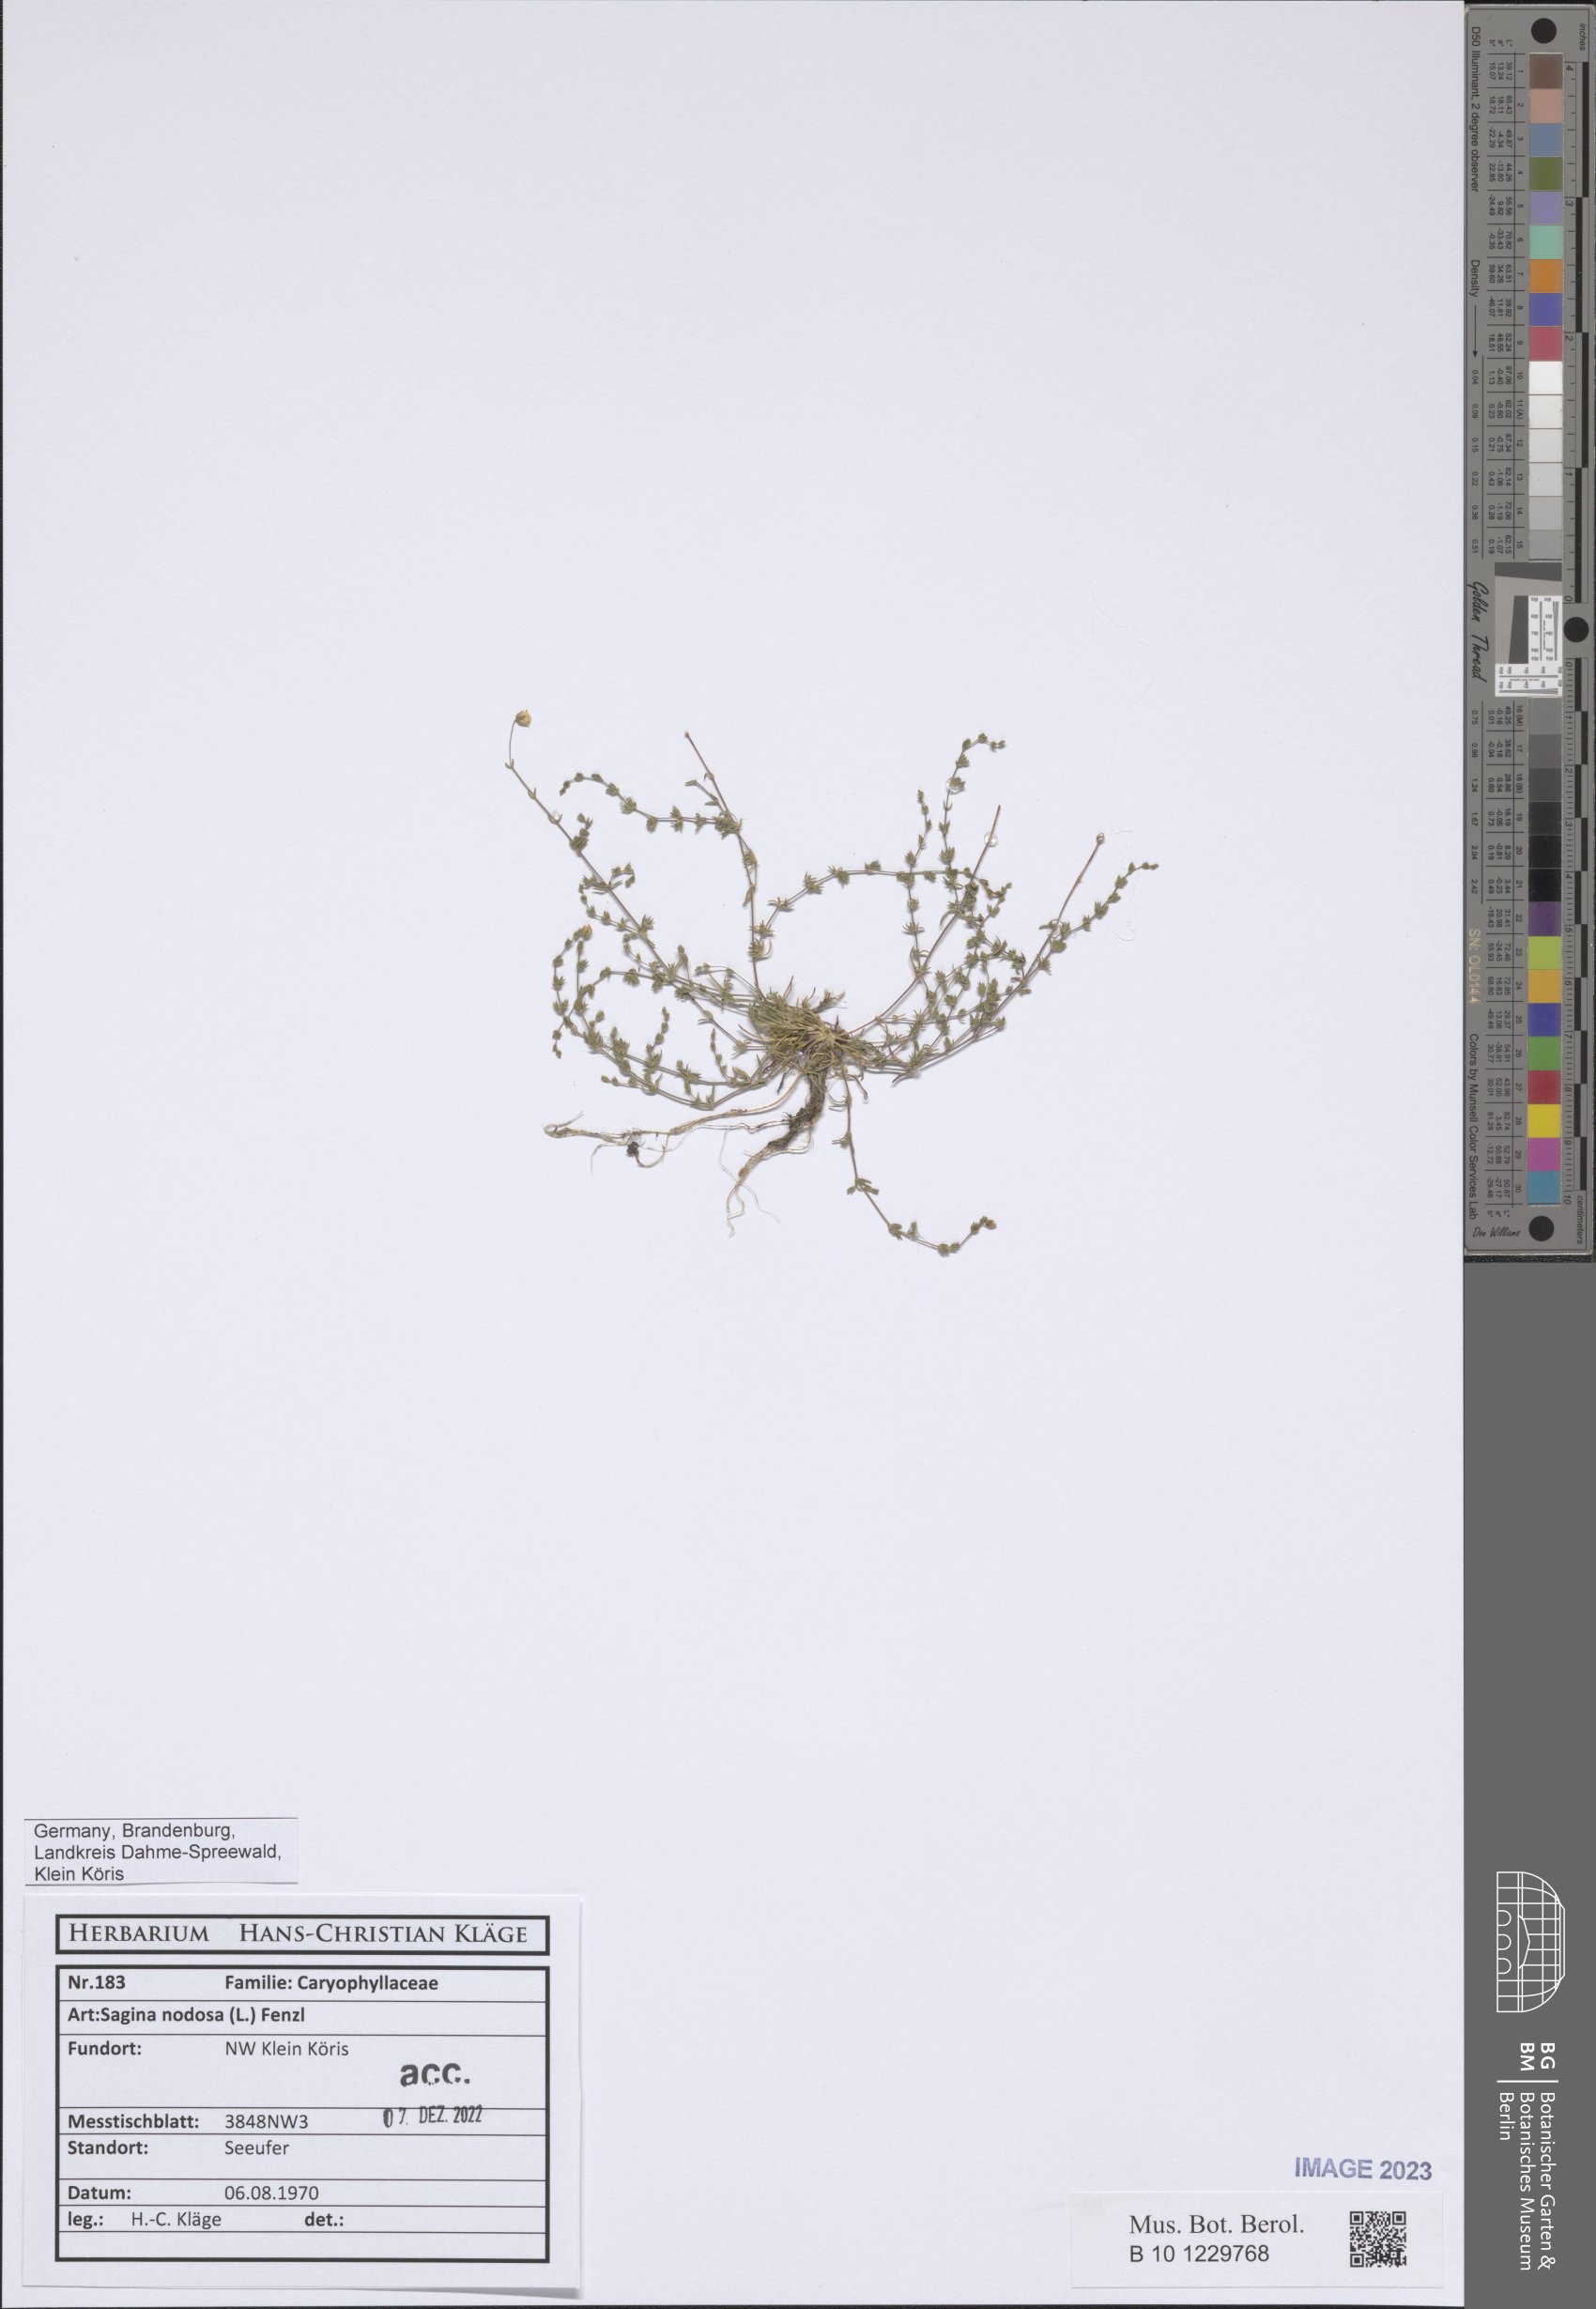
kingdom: Plantae
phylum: Tracheophyta
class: Magnoliopsida
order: Caryophyllales
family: Caryophyllaceae
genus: Sagina
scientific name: Sagina nodosa
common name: Knotted pearlwort
